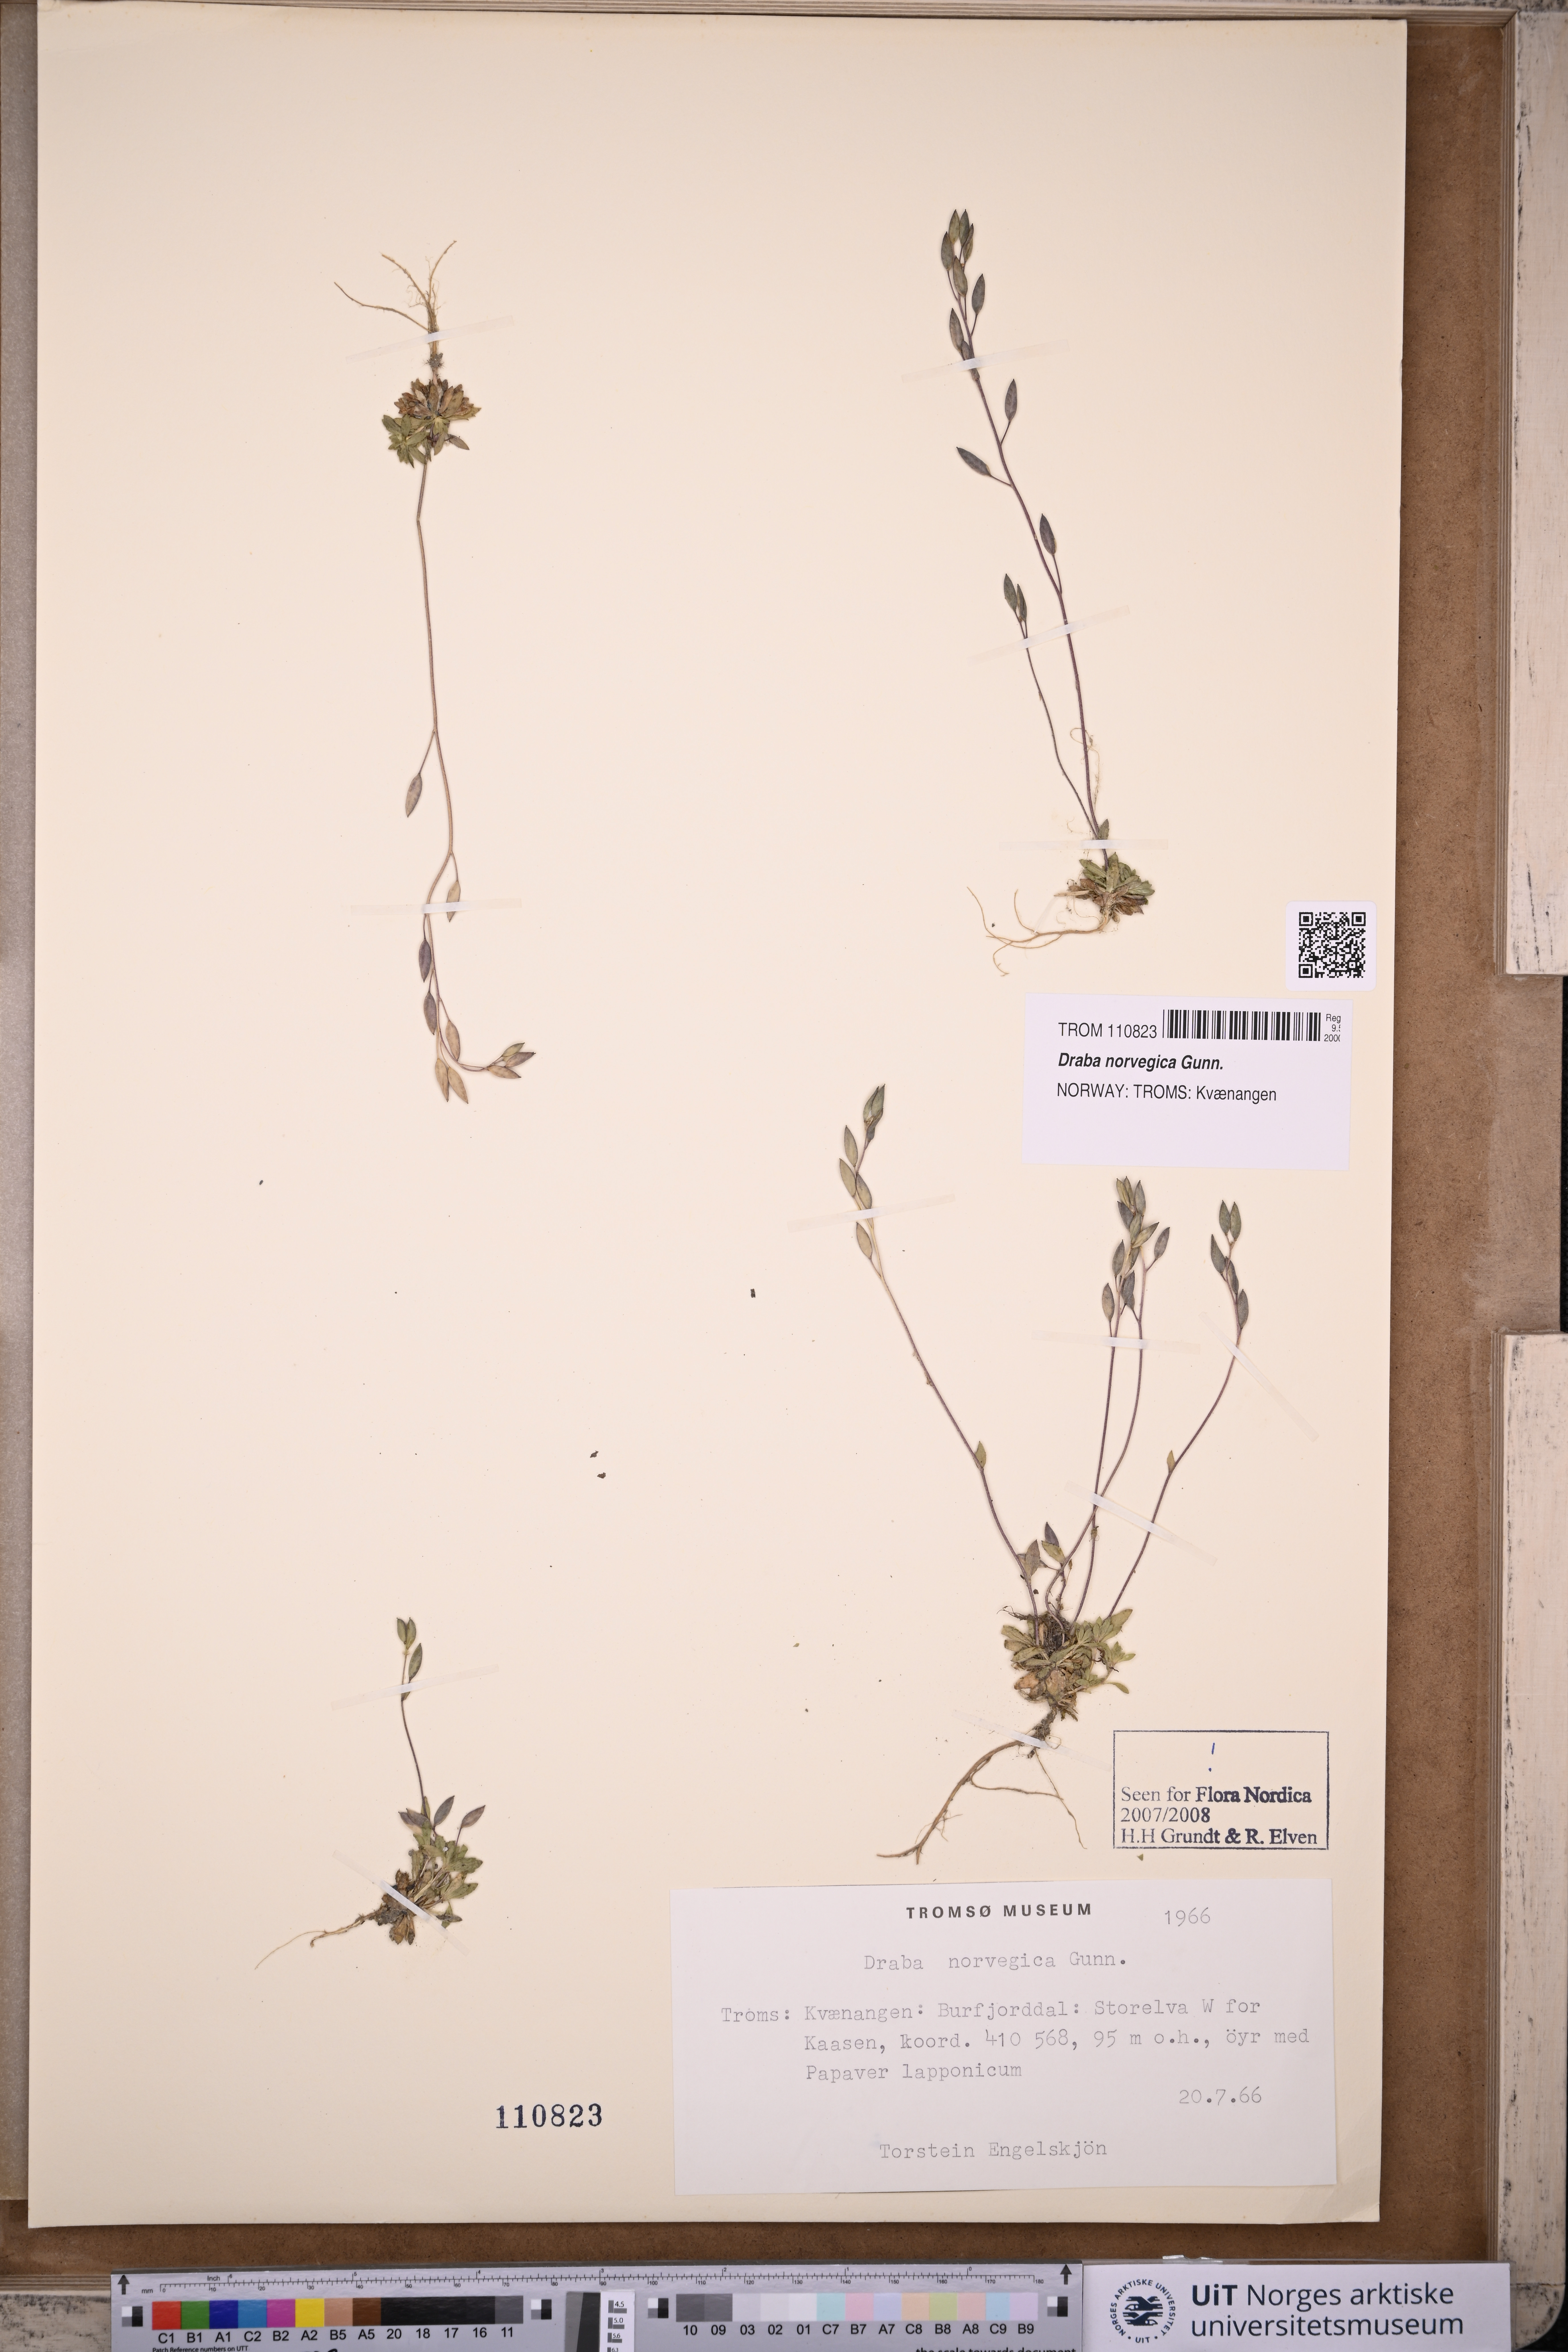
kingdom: Plantae
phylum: Tracheophyta
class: Magnoliopsida
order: Brassicales
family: Brassicaceae
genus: Draba
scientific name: Draba norvegica
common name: Rock whitlowgrass
